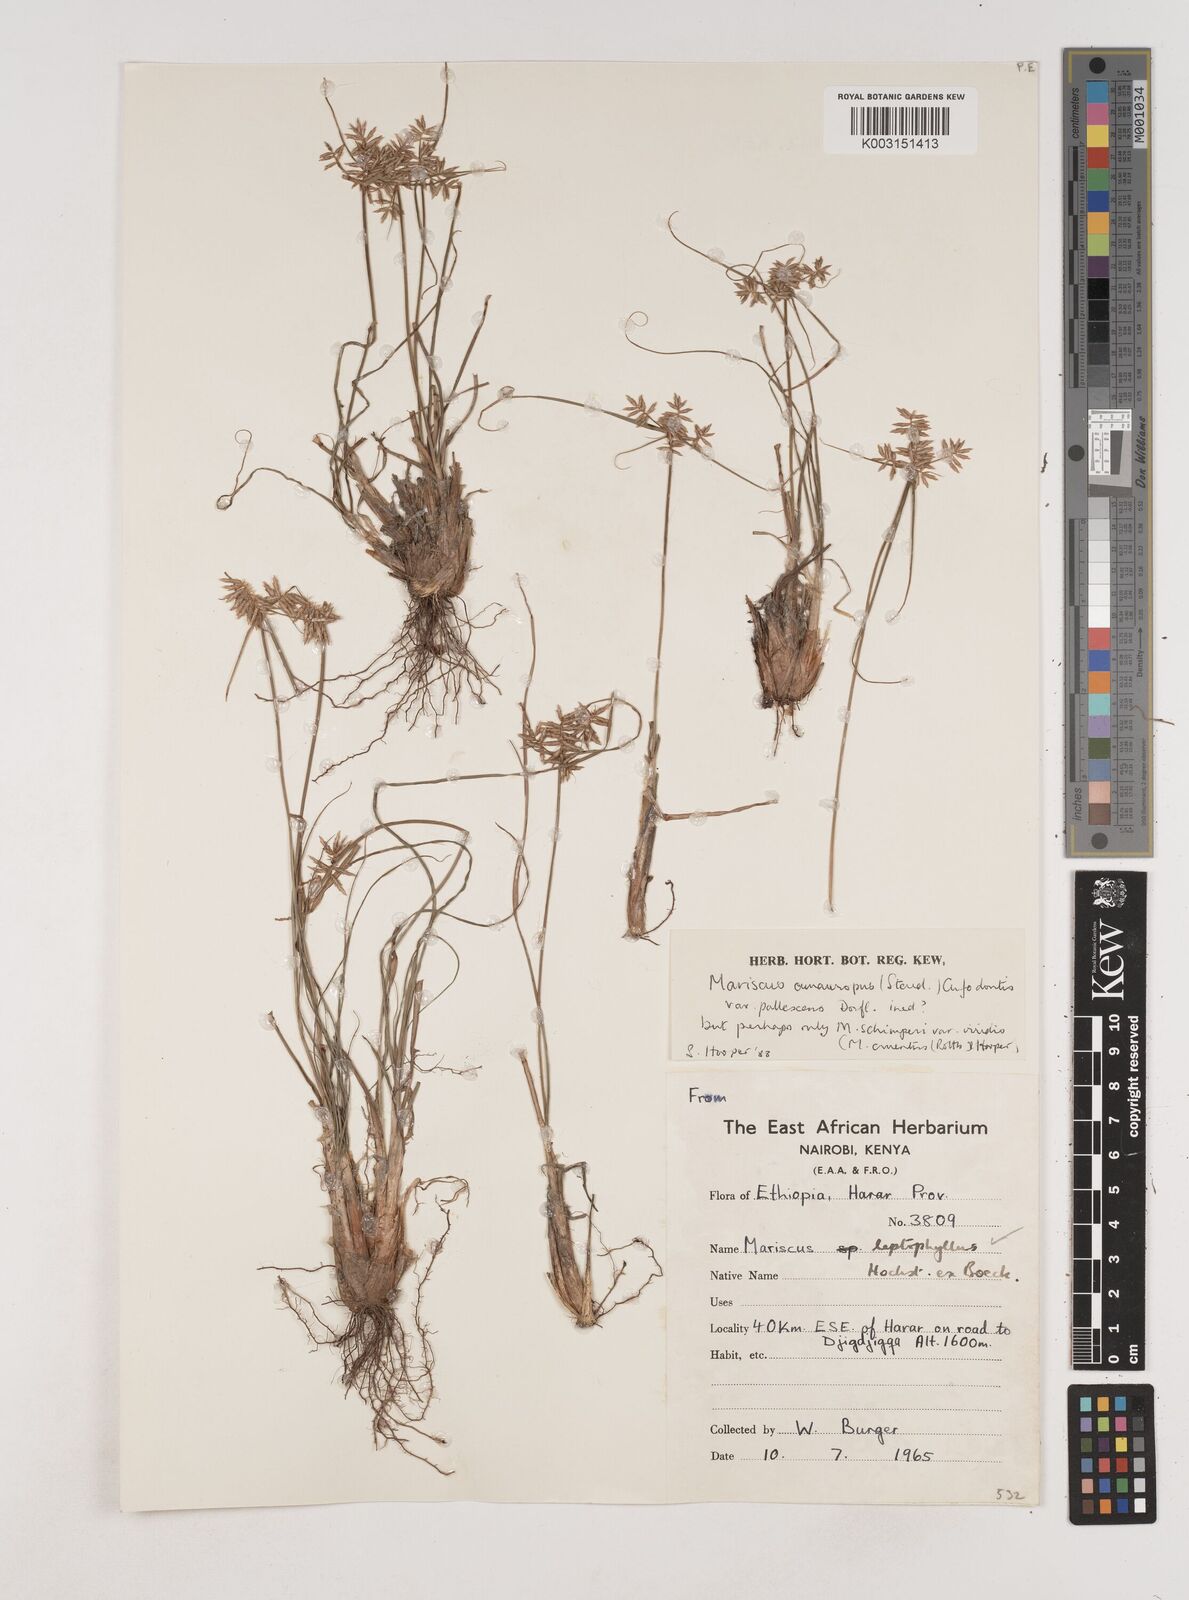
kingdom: Plantae
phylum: Tracheophyta
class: Liliopsida
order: Poales
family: Cyperaceae
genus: Cyperus
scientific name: Cyperus amauropus
